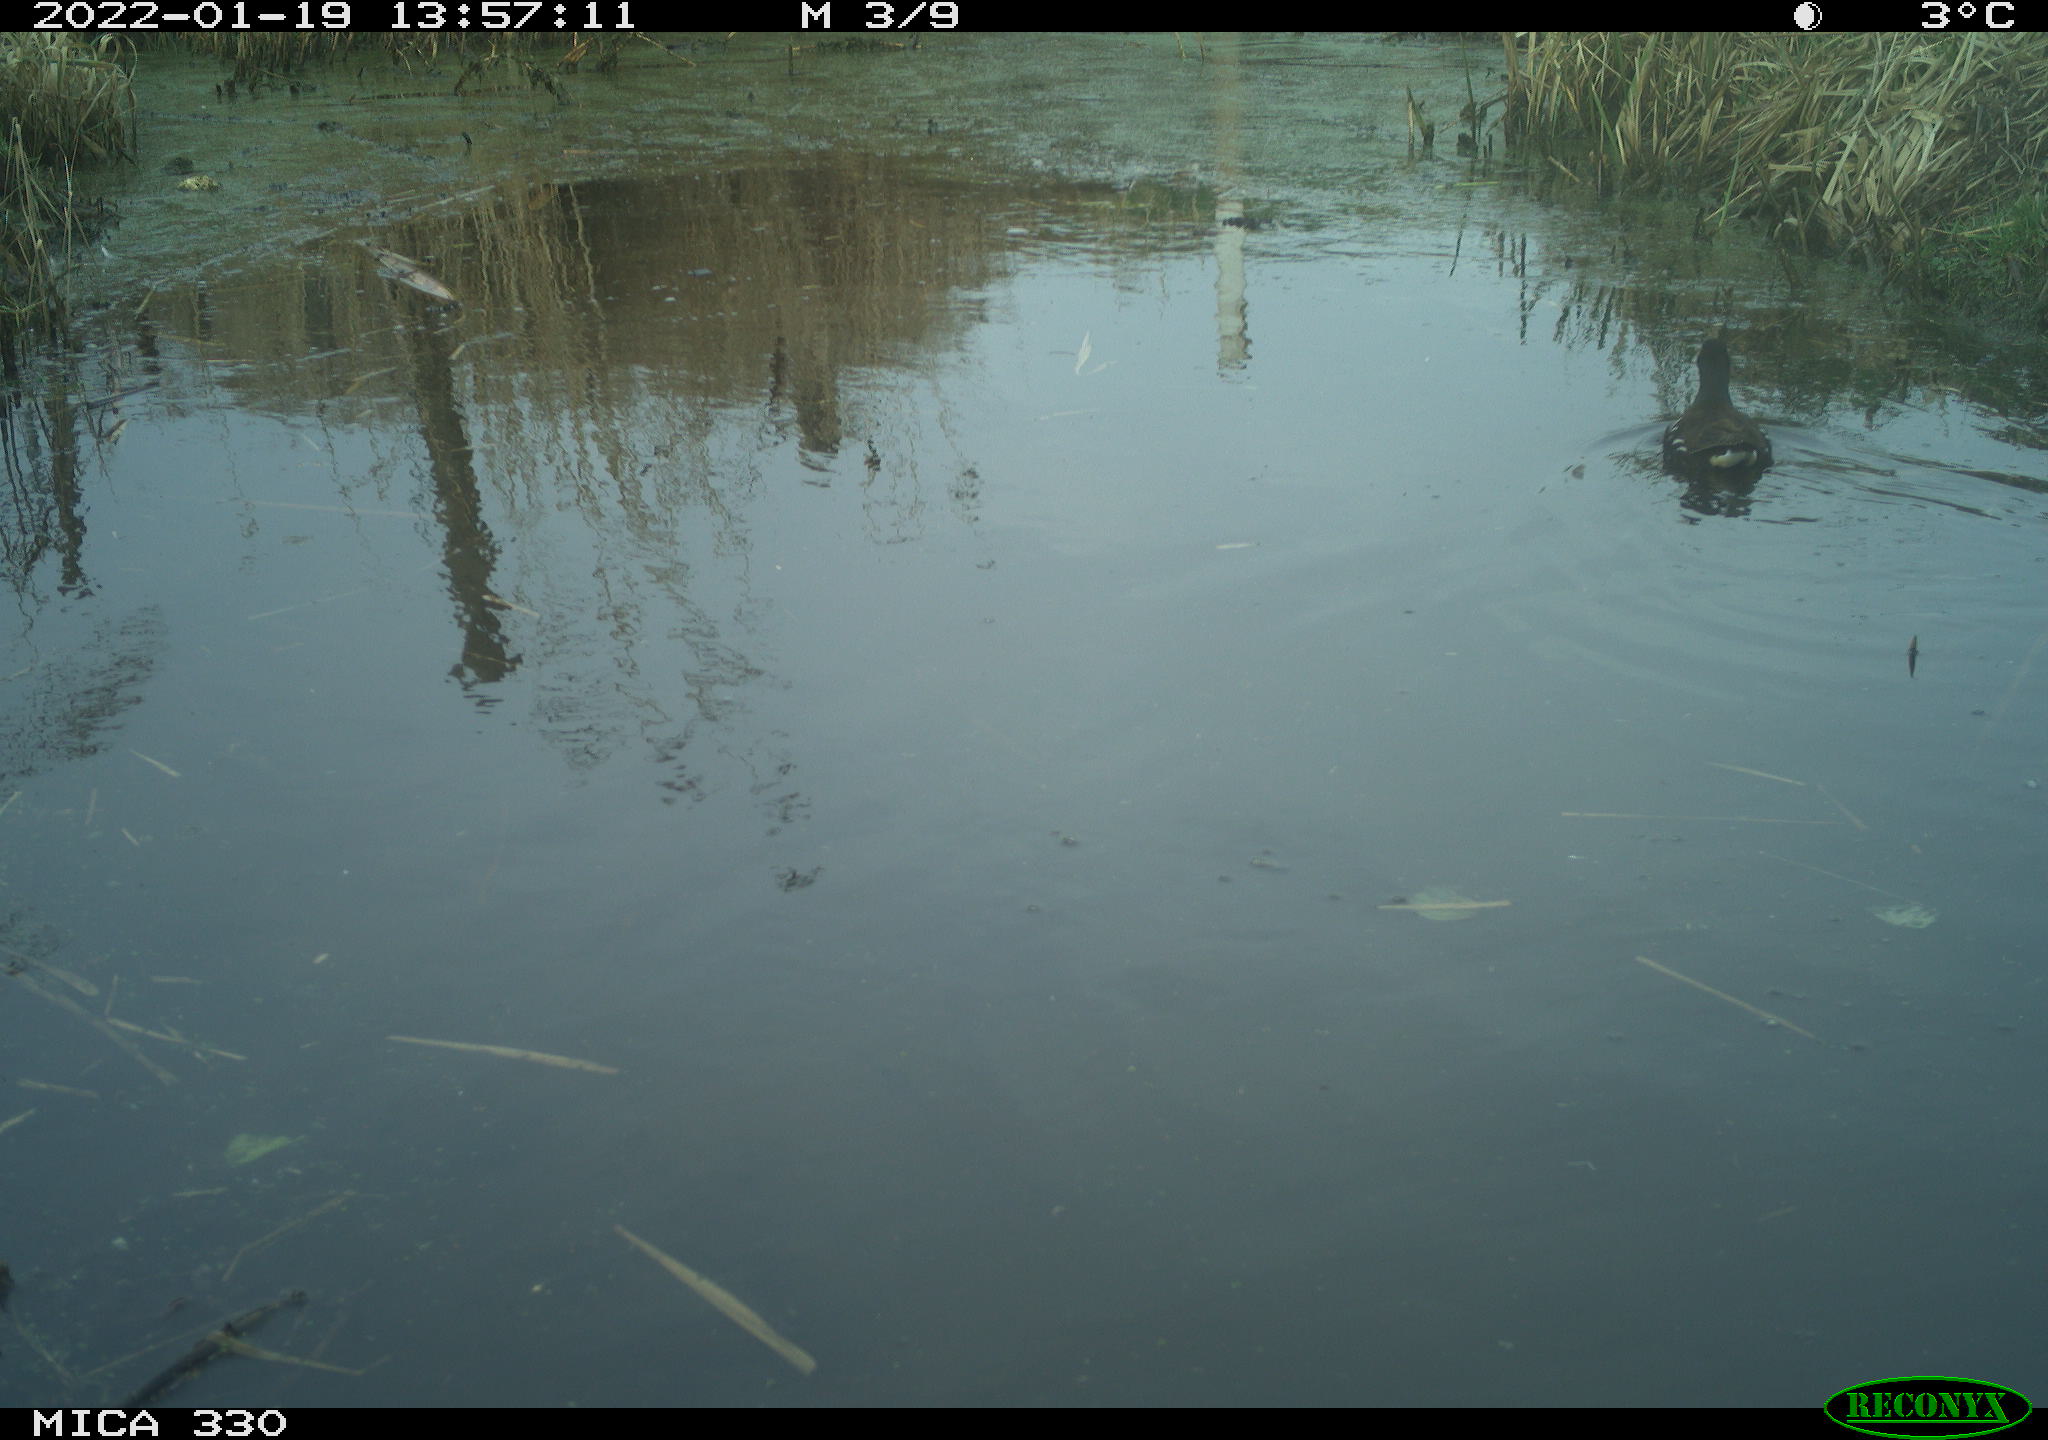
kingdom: Animalia
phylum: Chordata
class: Aves
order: Gruiformes
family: Rallidae
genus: Gallinula
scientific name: Gallinula chloropus
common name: Common moorhen
